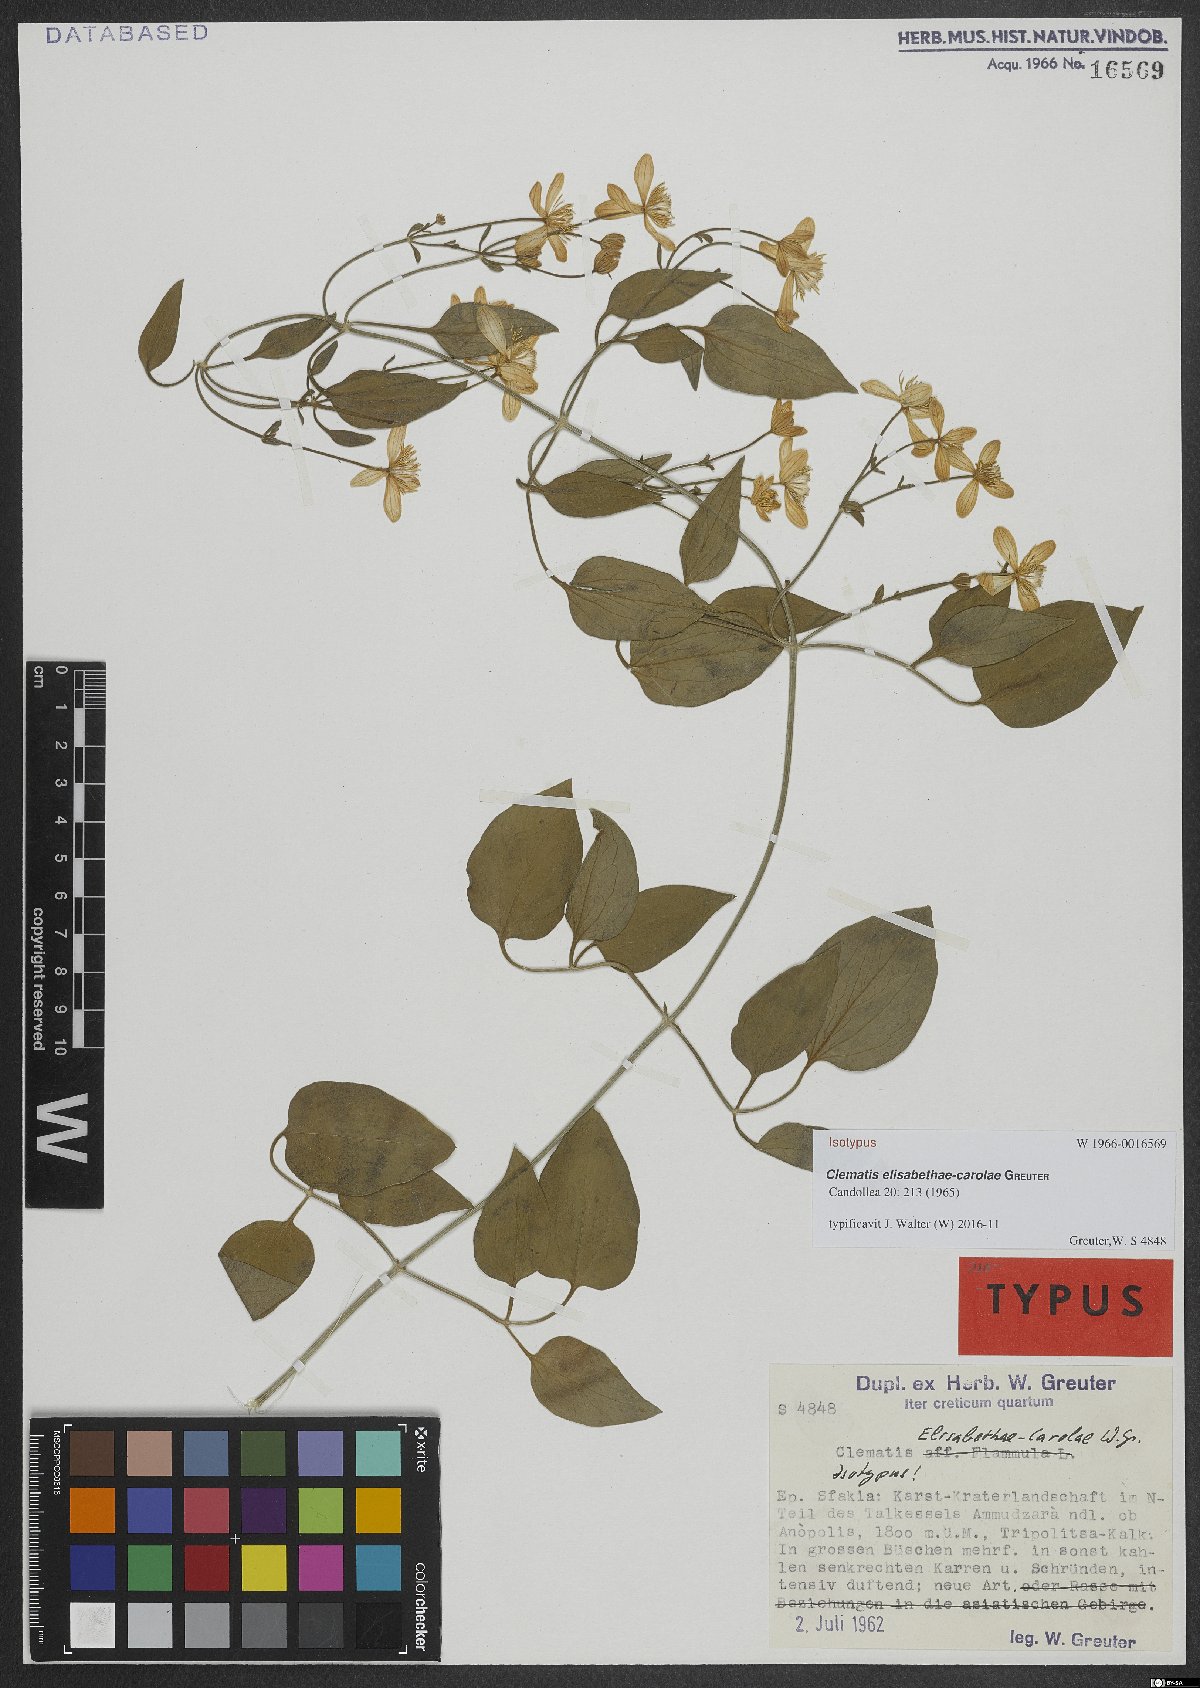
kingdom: Plantae
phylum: Tracheophyta
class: Magnoliopsida
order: Ranunculales
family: Ranunculaceae
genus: Clematis
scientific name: Clematis elisabethae-carolae
